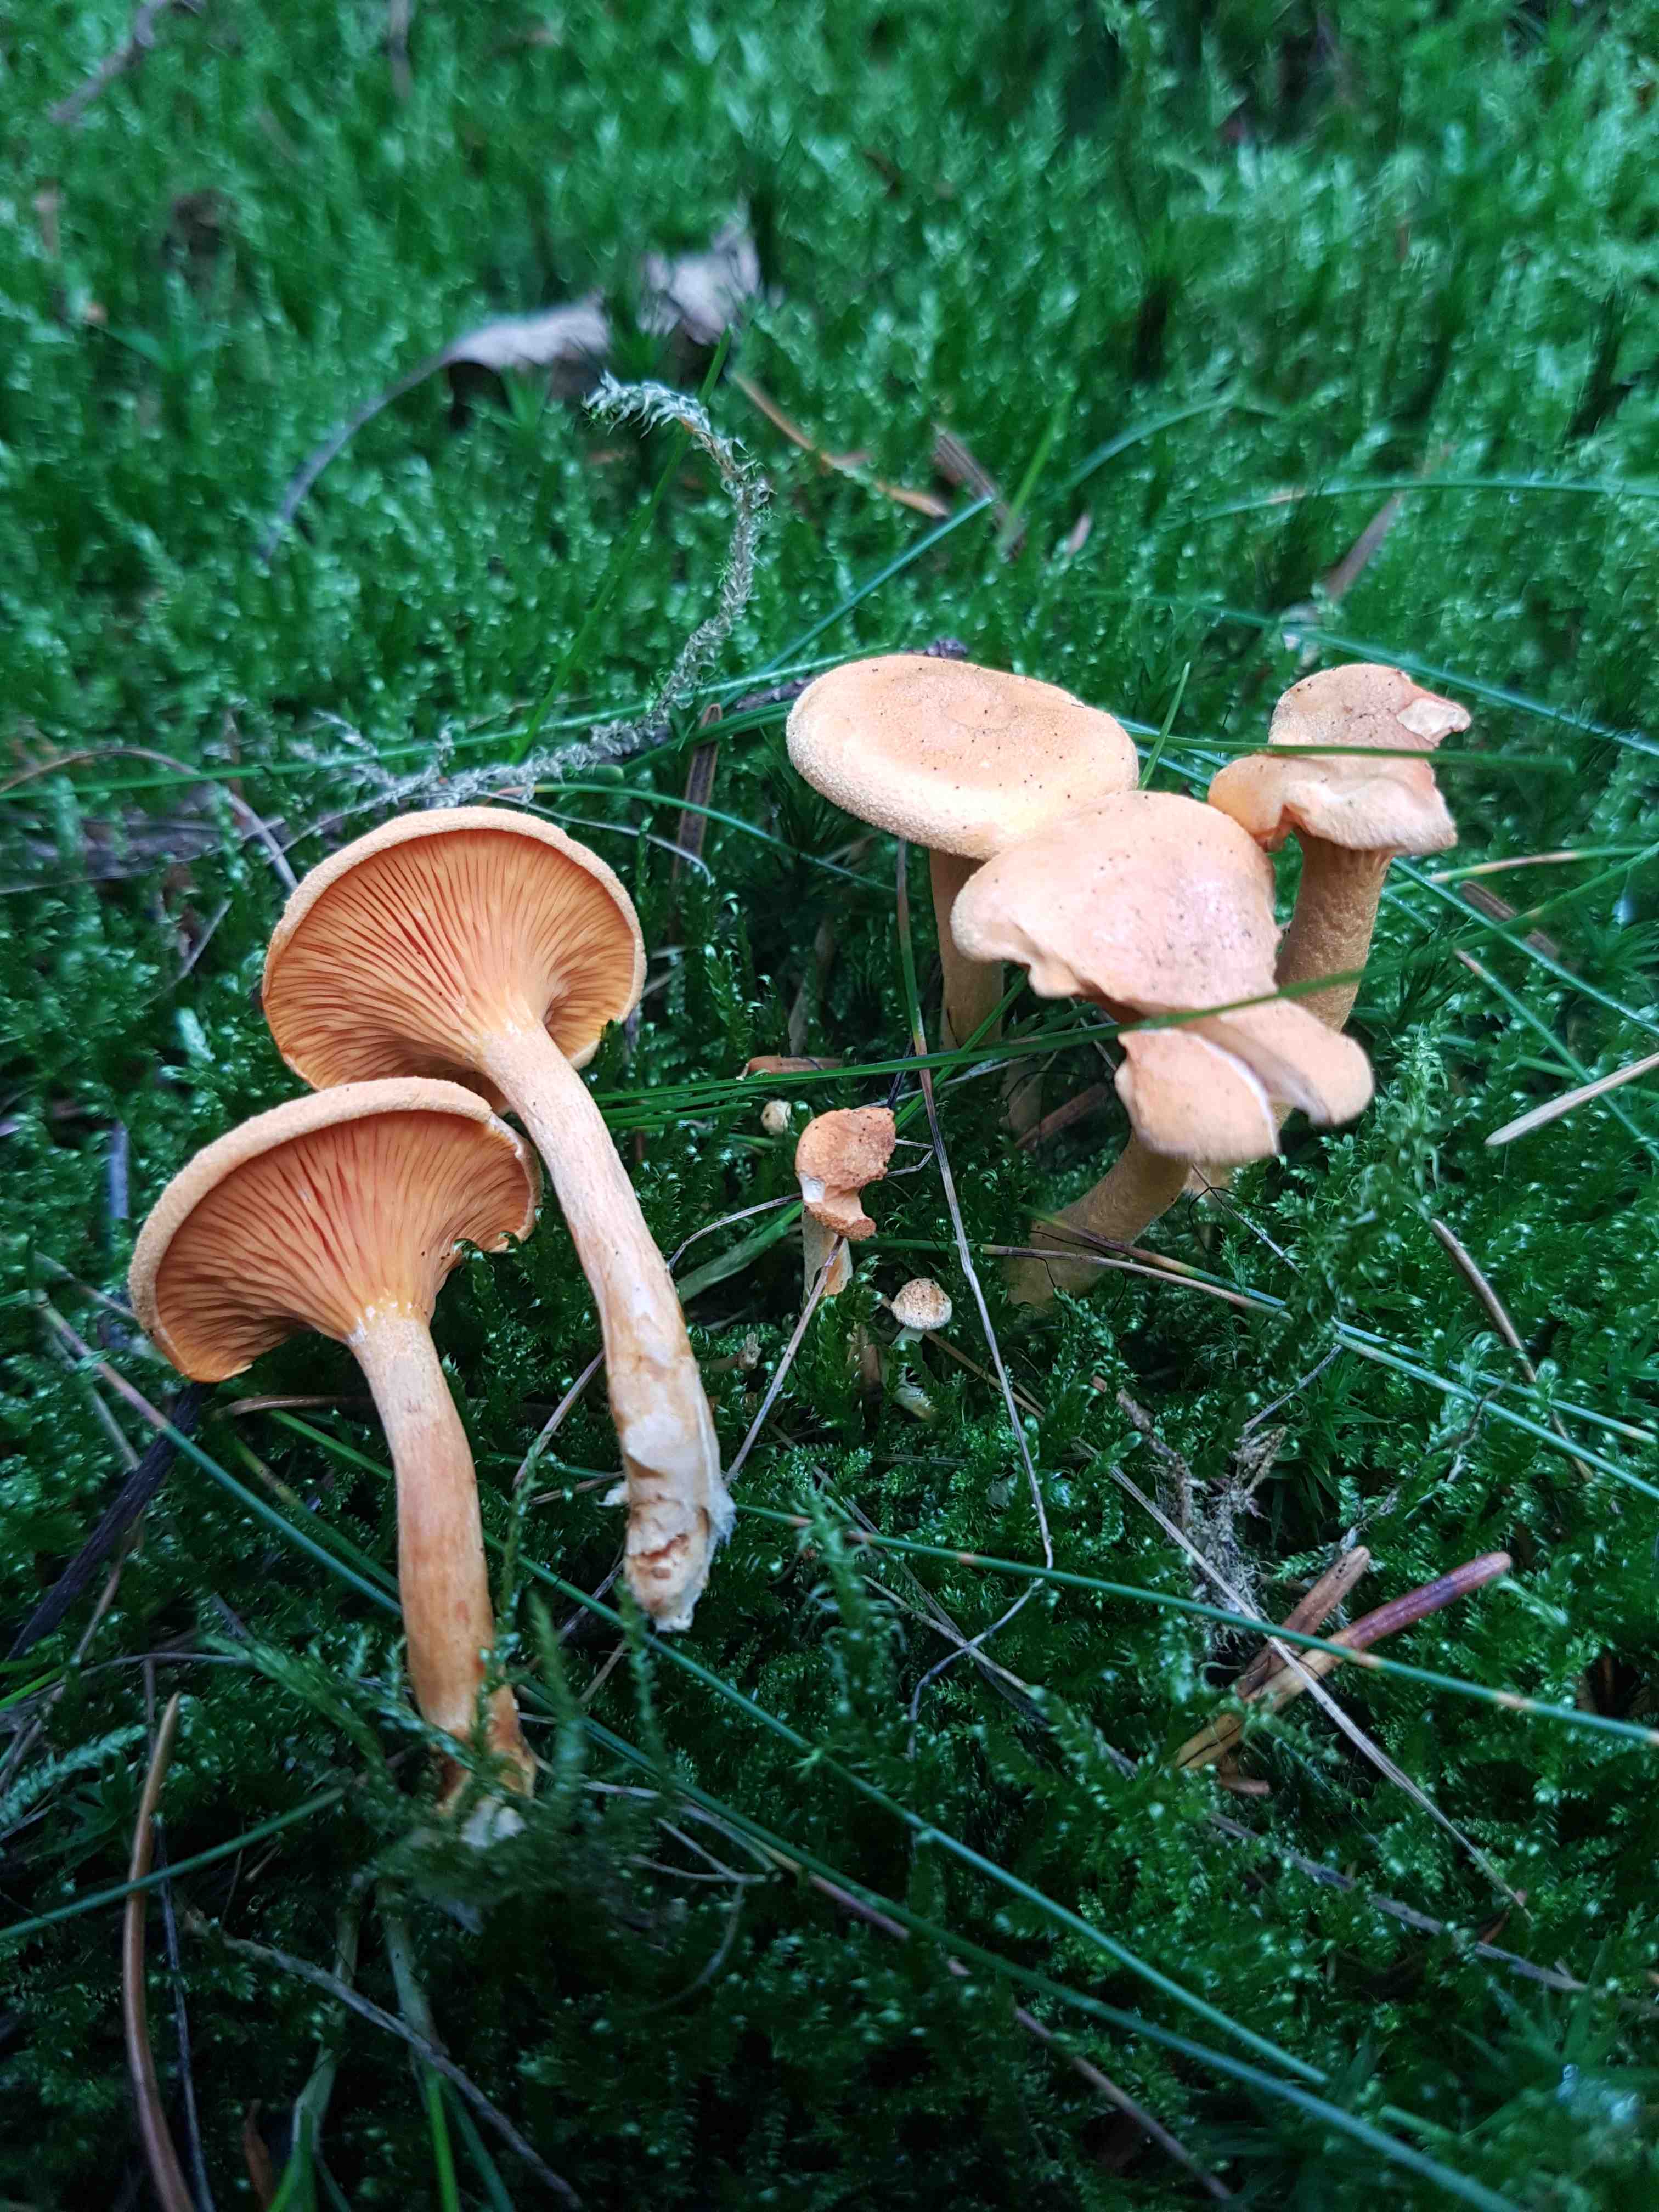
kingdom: Fungi
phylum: Basidiomycota
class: Agaricomycetes
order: Boletales
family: Hygrophoropsidaceae
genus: Hygrophoropsis
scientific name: Hygrophoropsis aurantiaca
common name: almindelig orangekantarel
